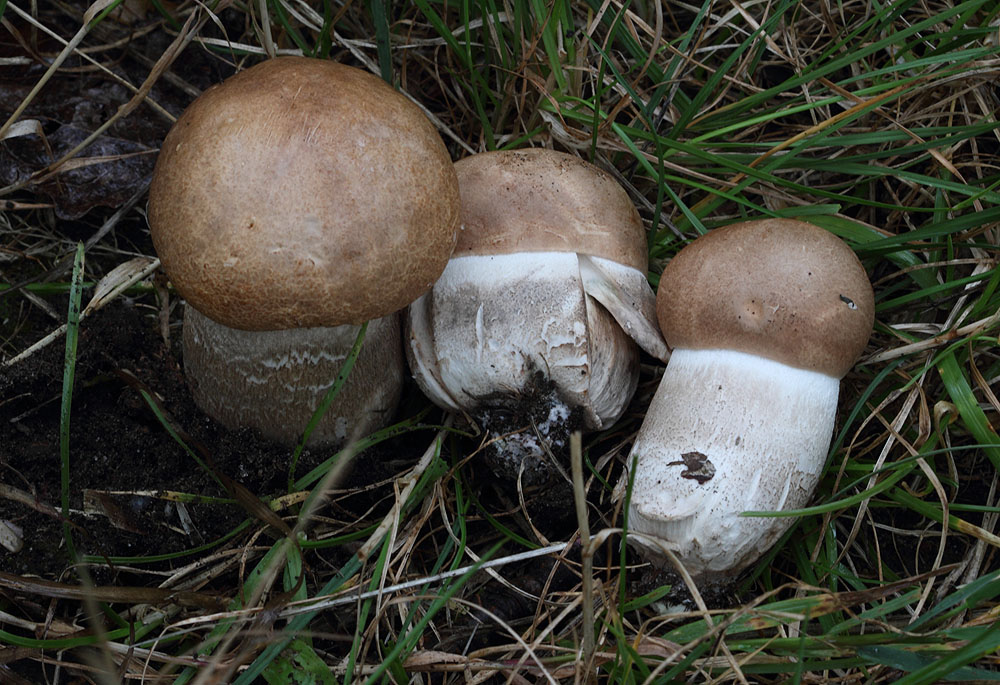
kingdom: Fungi
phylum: Basidiomycota
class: Agaricomycetes
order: Boletales
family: Boletaceae
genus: Leccinum
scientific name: Leccinum duriusculum
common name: poppel-skælrørhat
